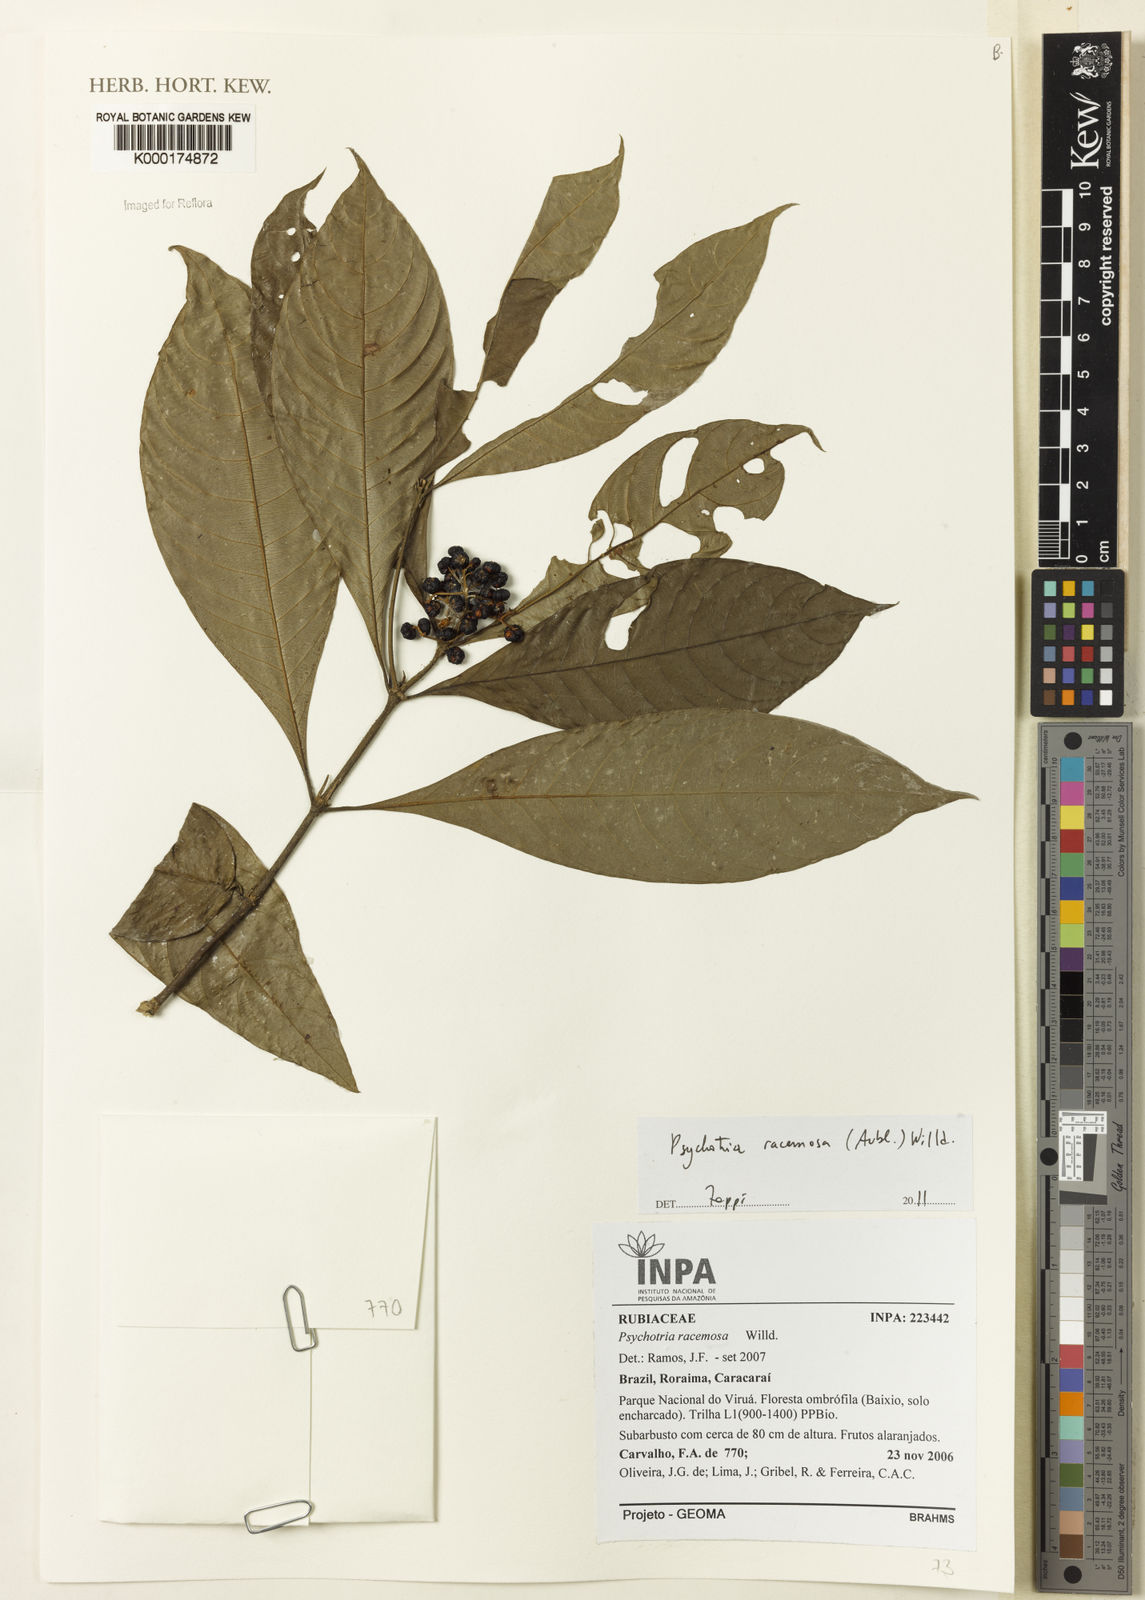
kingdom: Plantae
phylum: Tracheophyta
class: Magnoliopsida
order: Gentianales
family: Rubiaceae
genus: Palicourea
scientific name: Palicourea racemosa
